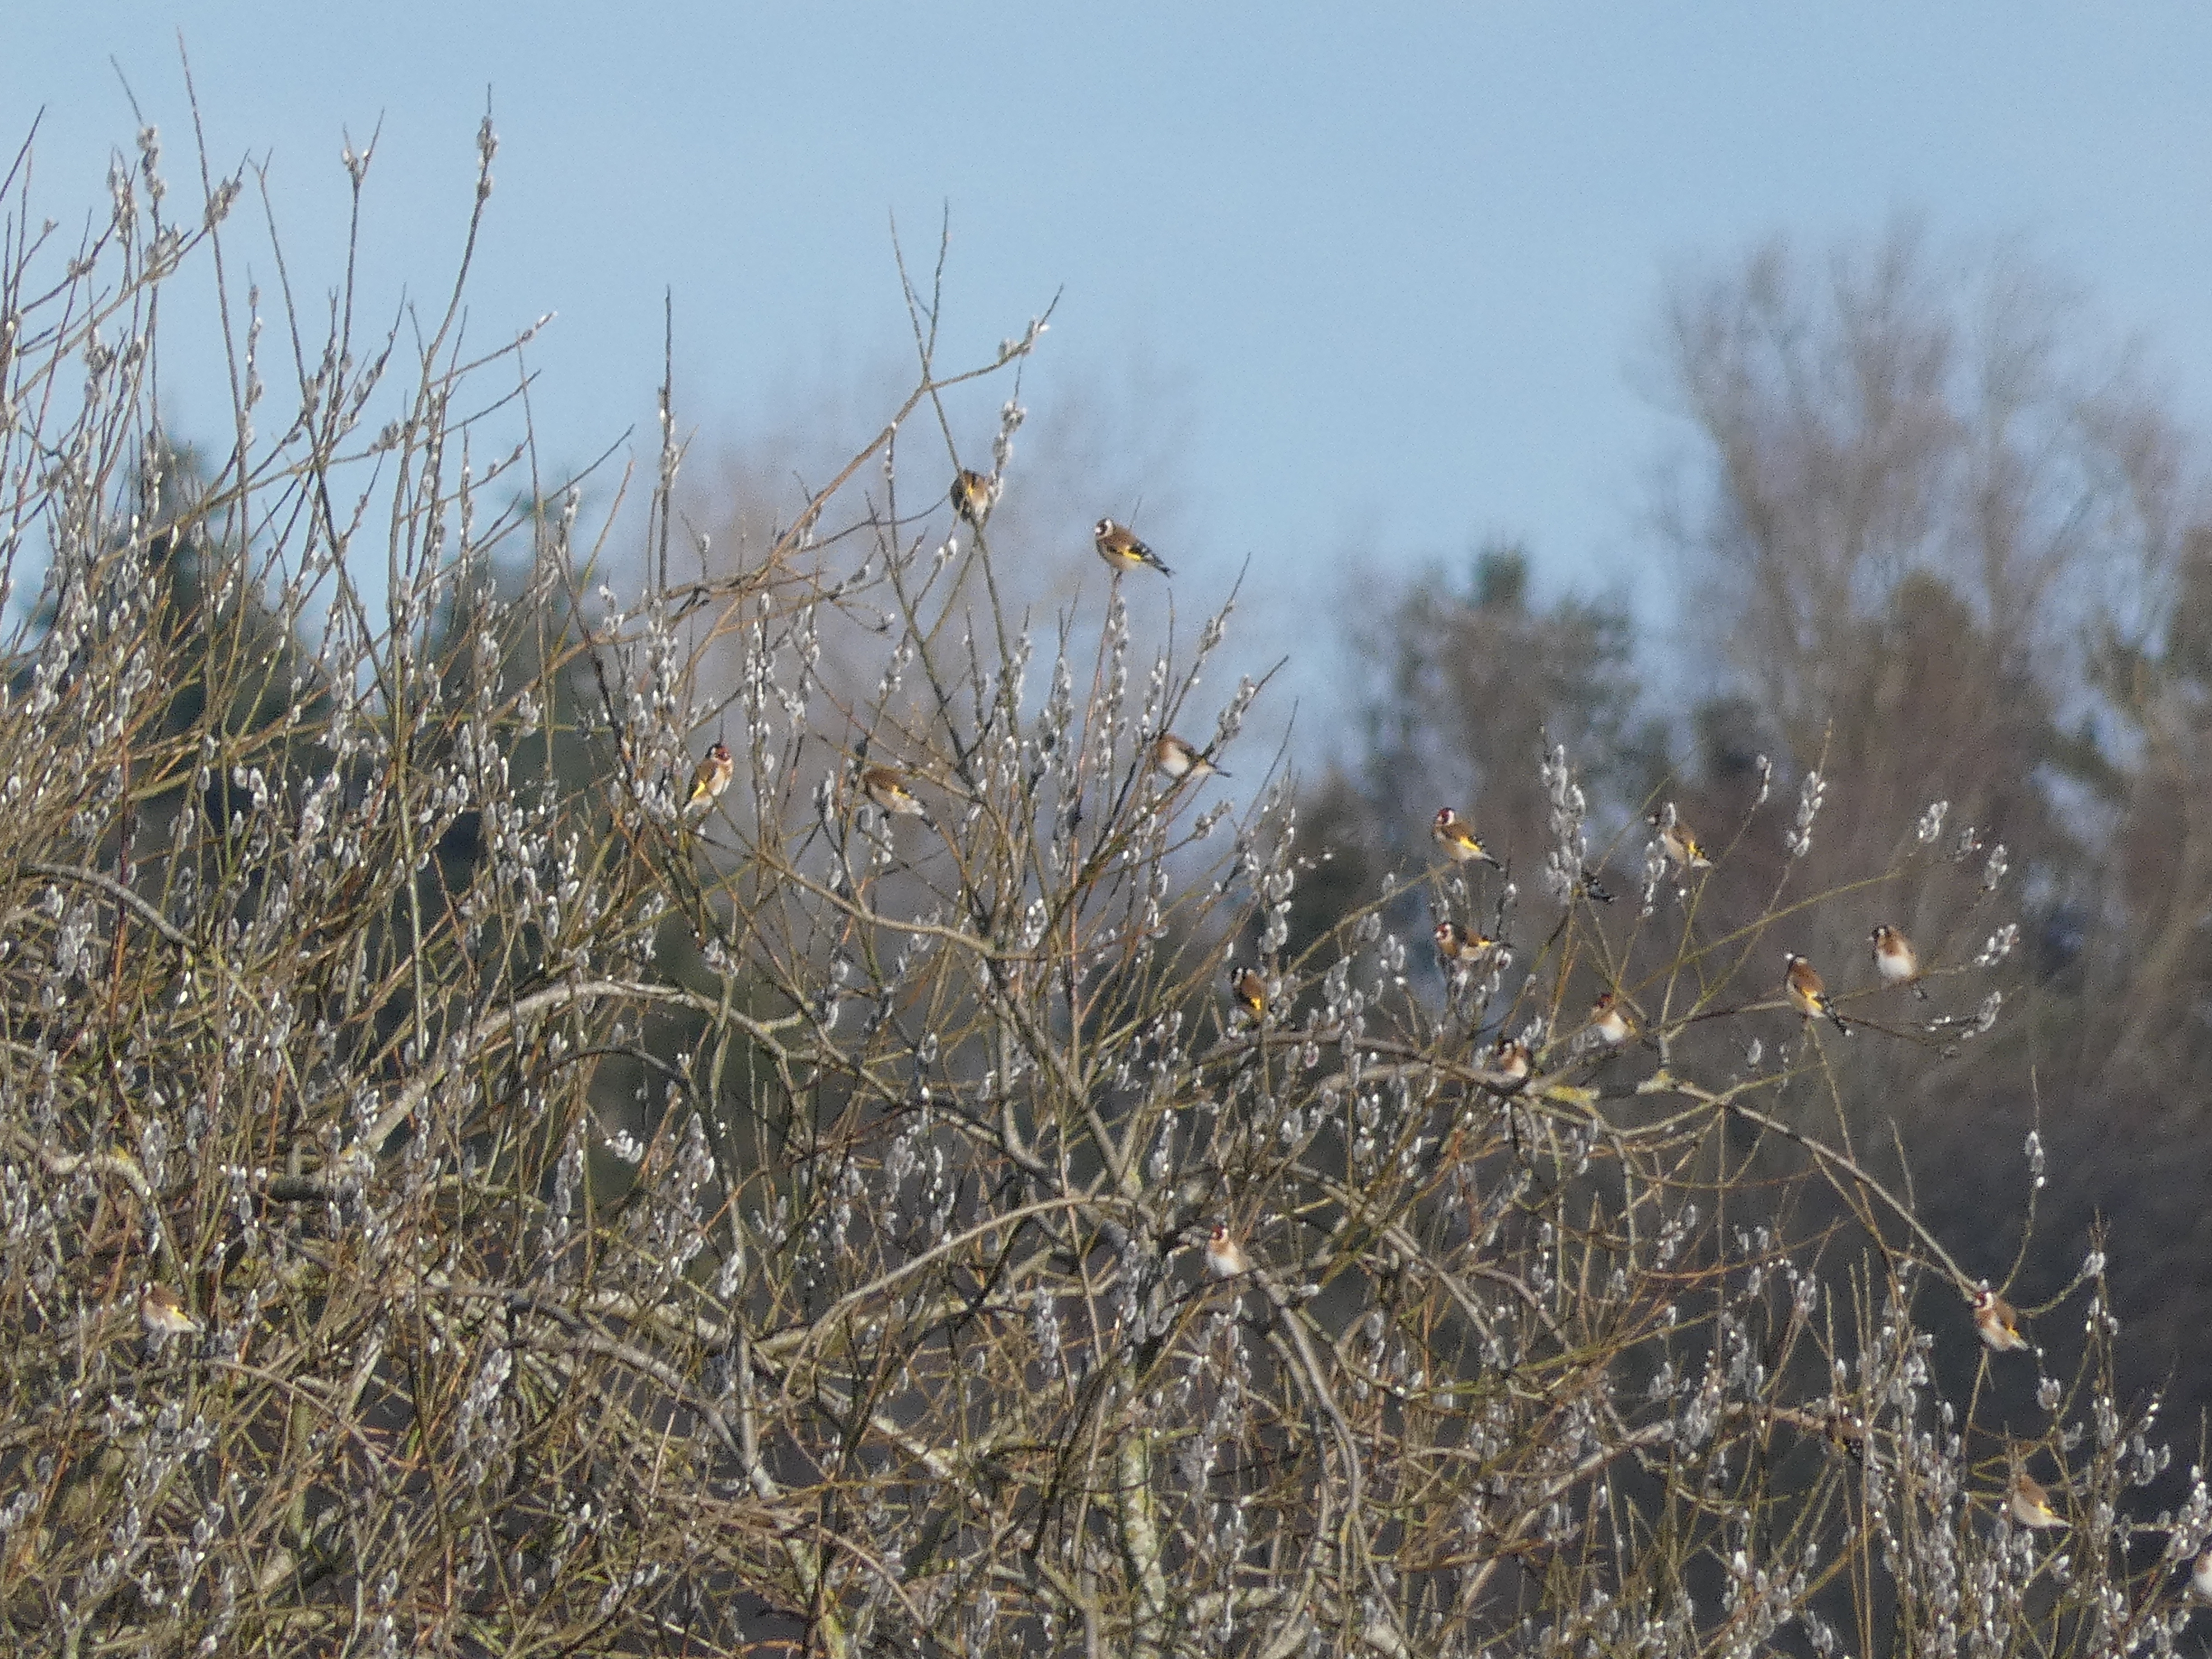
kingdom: Animalia
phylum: Chordata
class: Aves
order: Passeriformes
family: Fringillidae
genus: Carduelis
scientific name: Carduelis carduelis
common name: Stillits
